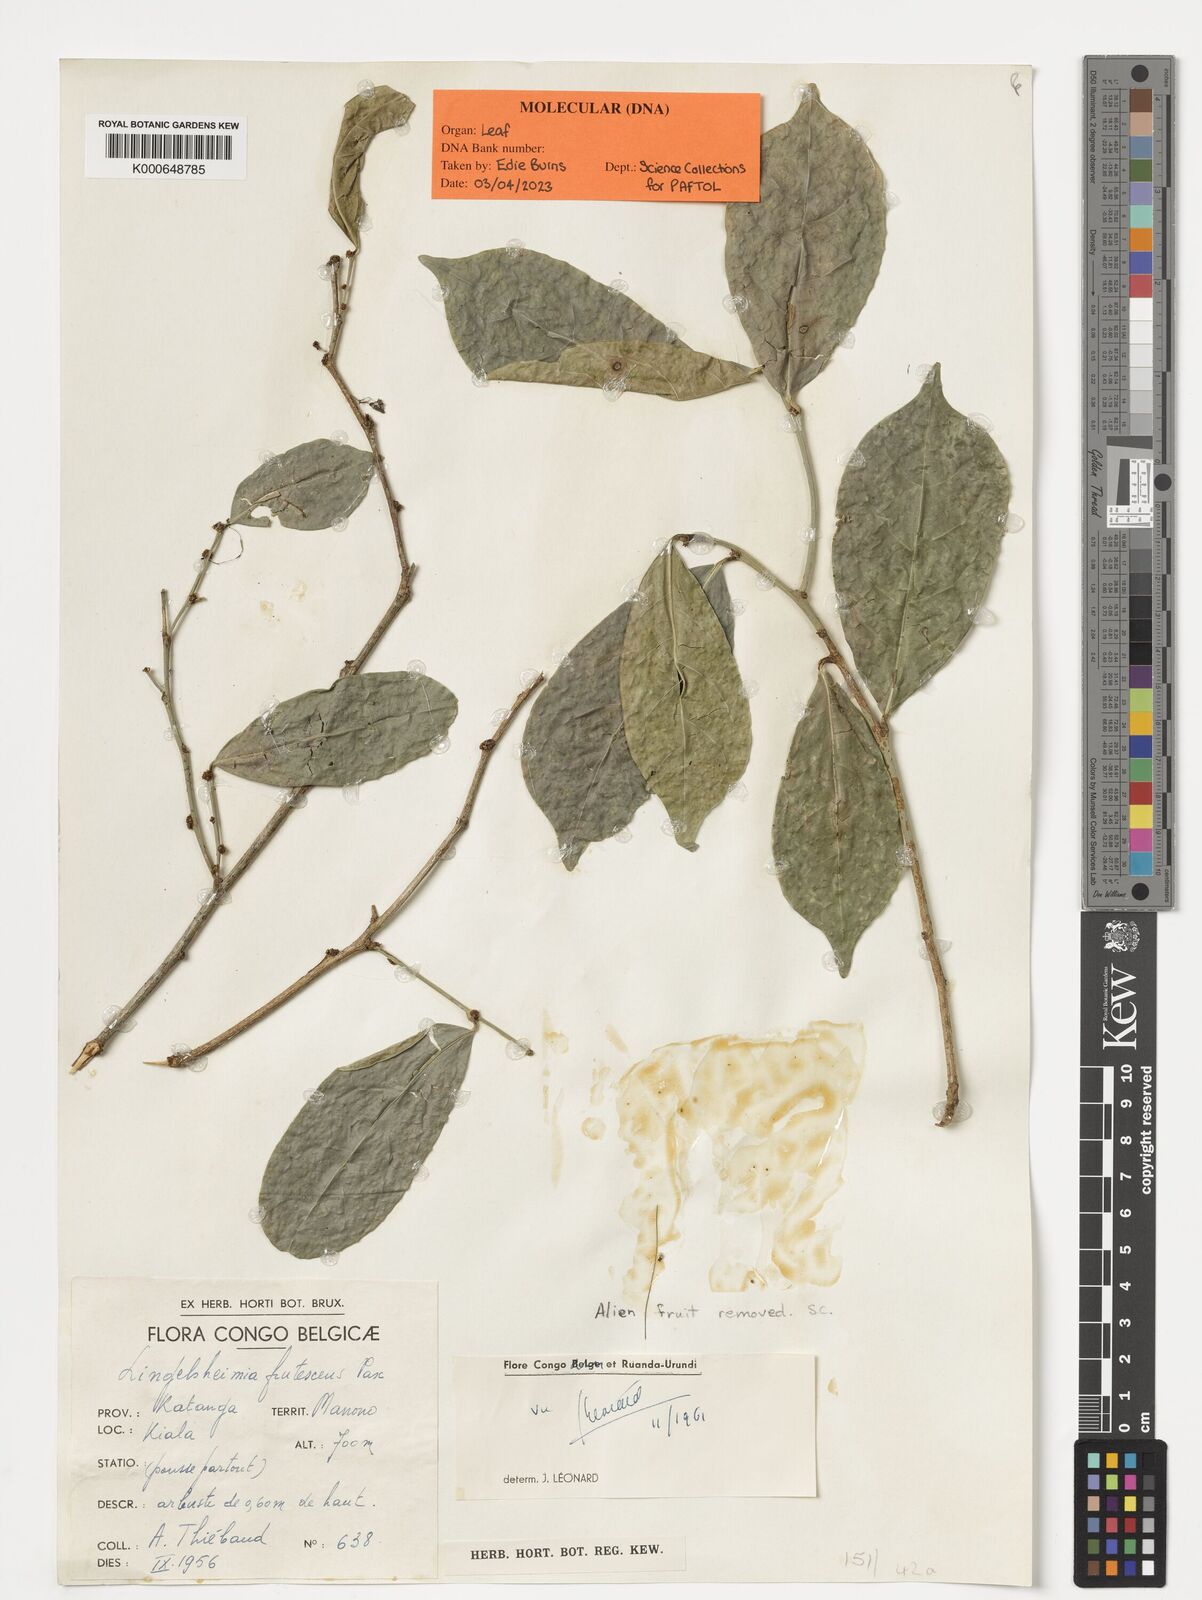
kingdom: Plantae
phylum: Tracheophyta
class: Magnoliopsida
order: Malpighiales
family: Phyllanthaceae
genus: Lingelsheimia
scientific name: Lingelsheimia frutescens
